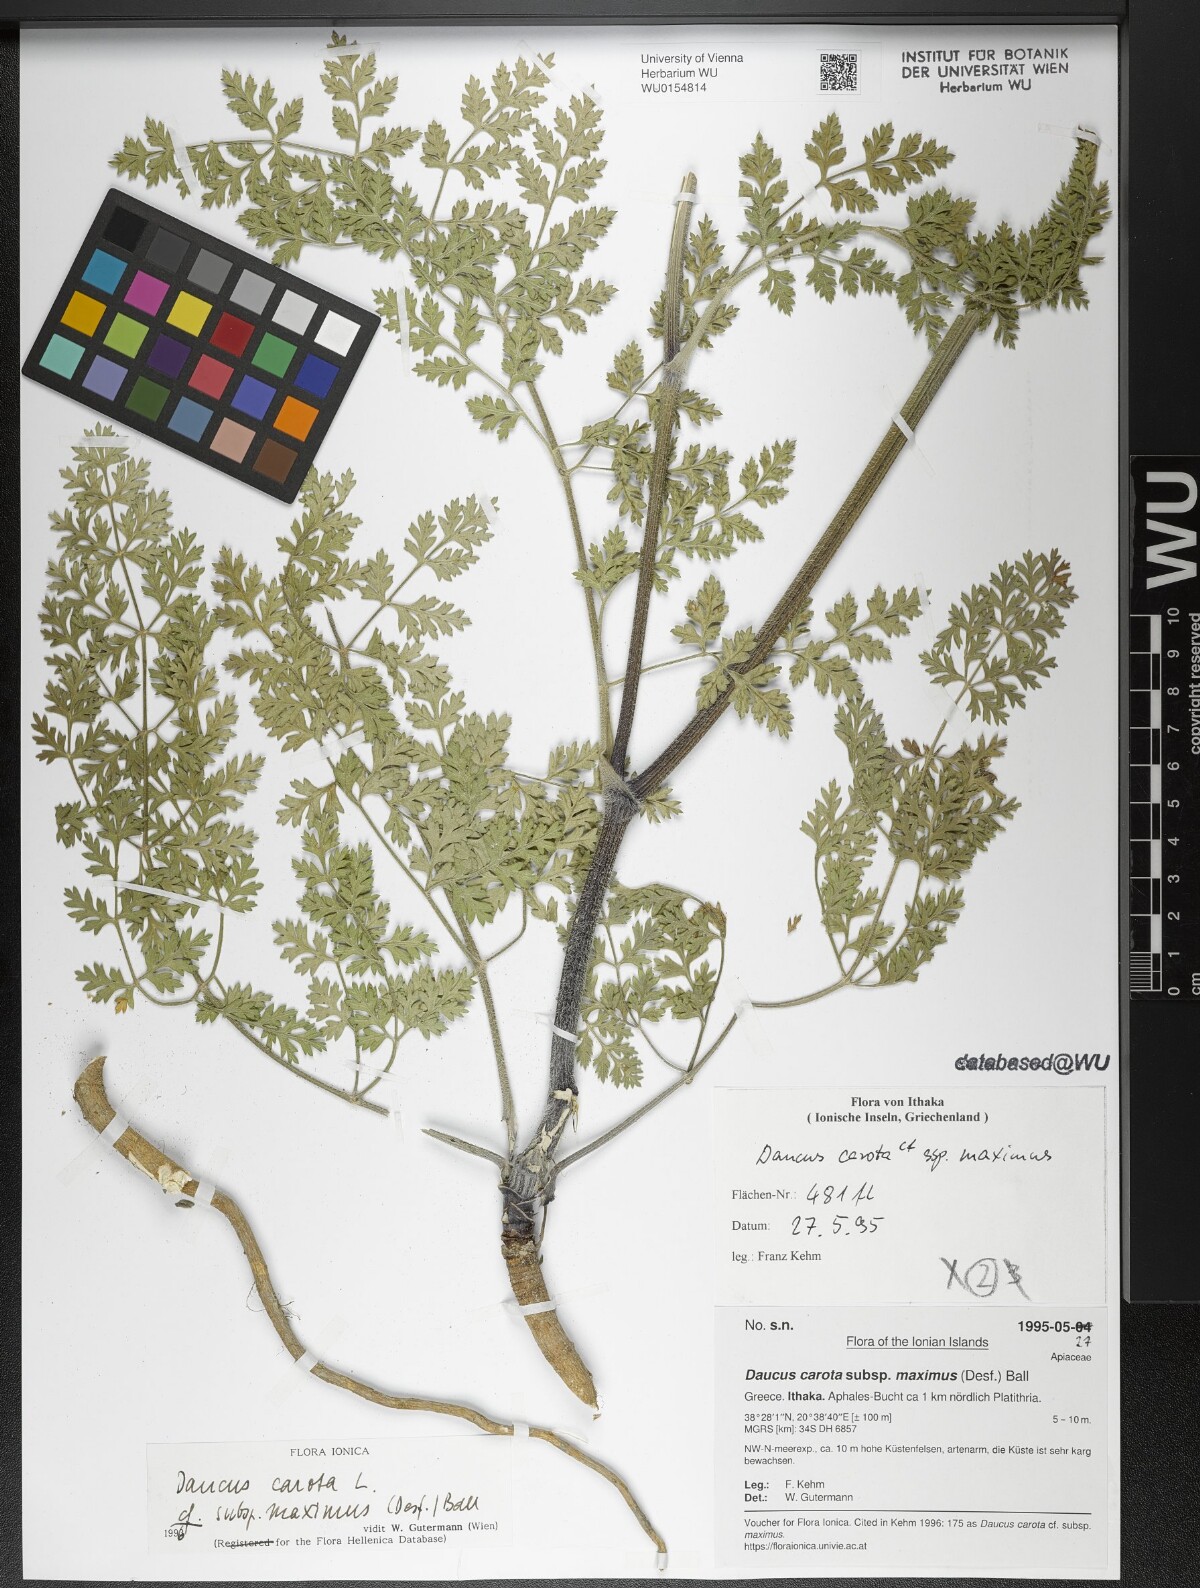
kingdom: Plantae
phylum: Tracheophyta
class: Magnoliopsida
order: Apiales
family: Apiaceae
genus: Daucus
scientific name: Daucus carota
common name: Wild carrot
